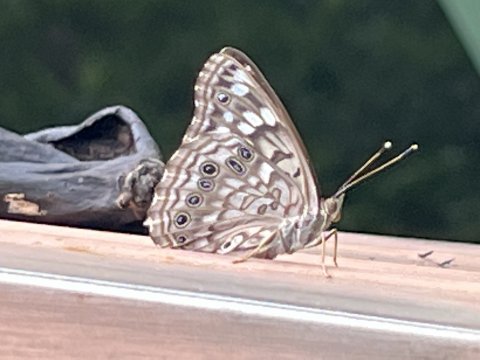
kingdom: Animalia
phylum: Arthropoda
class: Insecta
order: Lepidoptera
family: Nymphalidae
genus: Asterocampa
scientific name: Asterocampa celtis
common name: Hackberry Emperor
